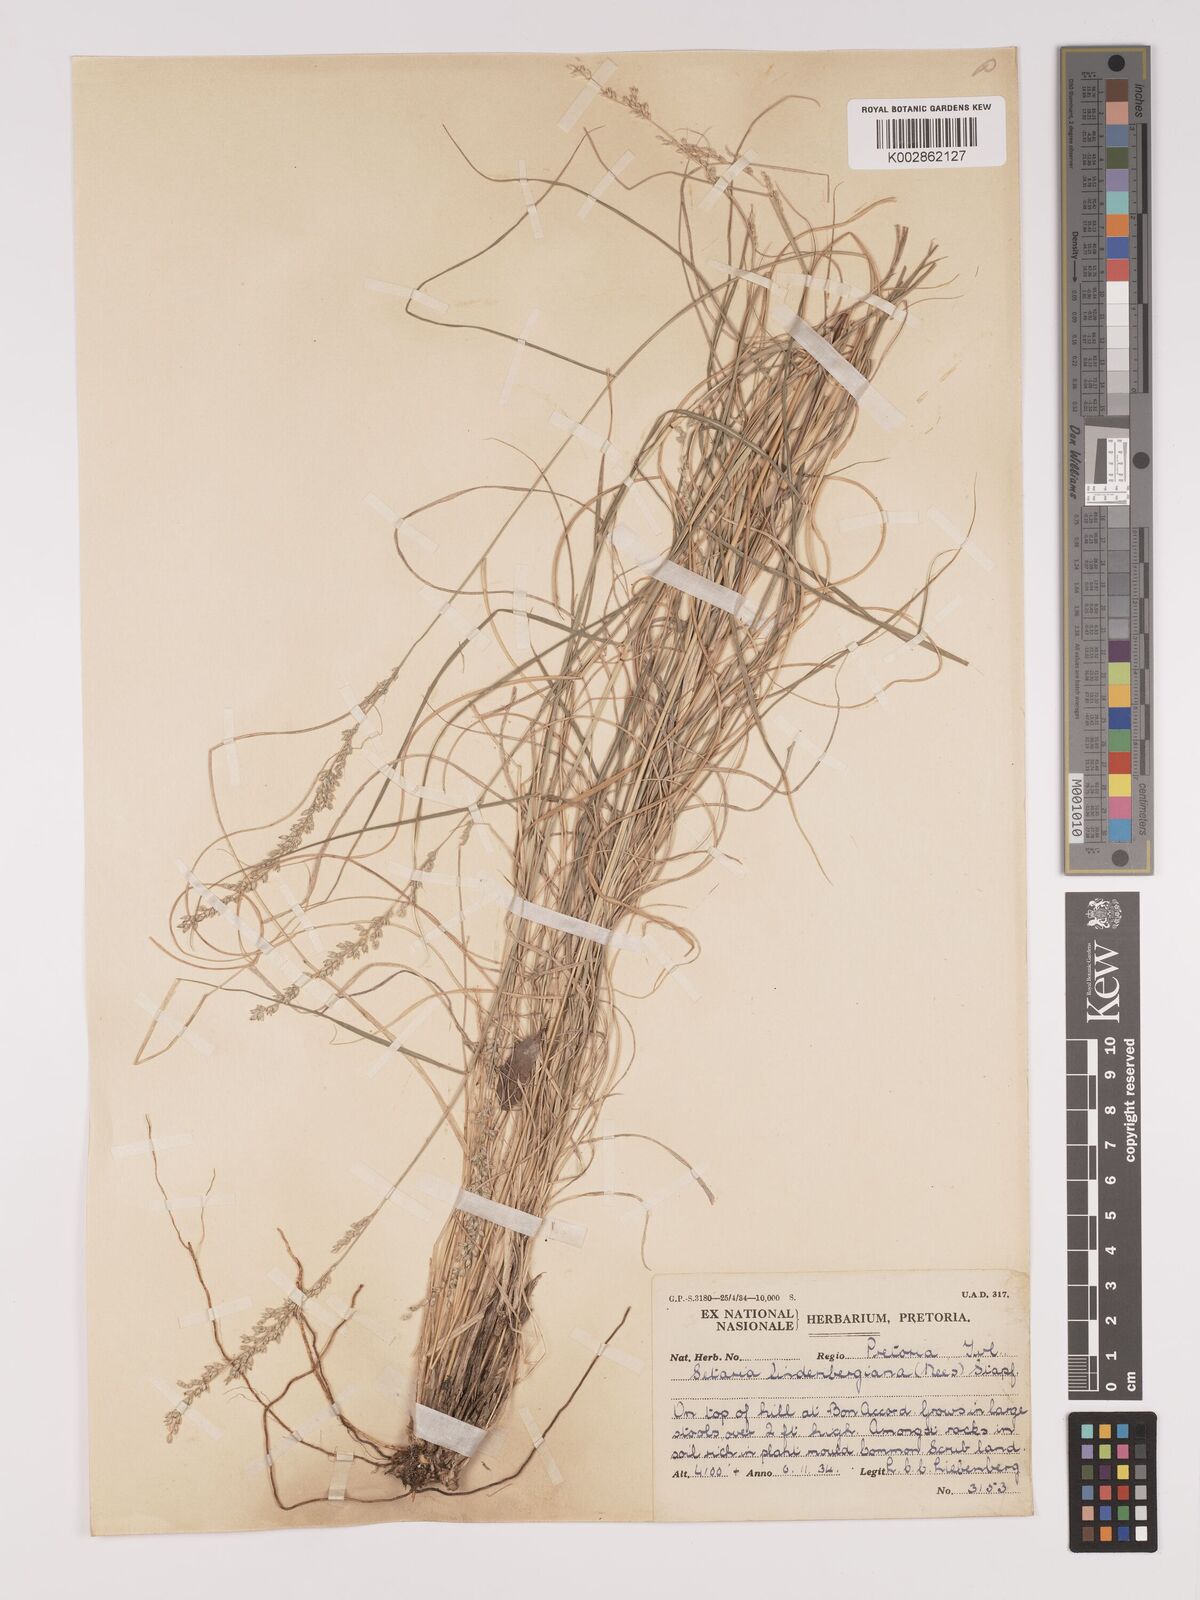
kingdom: Plantae
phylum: Tracheophyta
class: Liliopsida
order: Poales
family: Poaceae
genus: Setaria
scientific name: Setaria lindenbergiana
